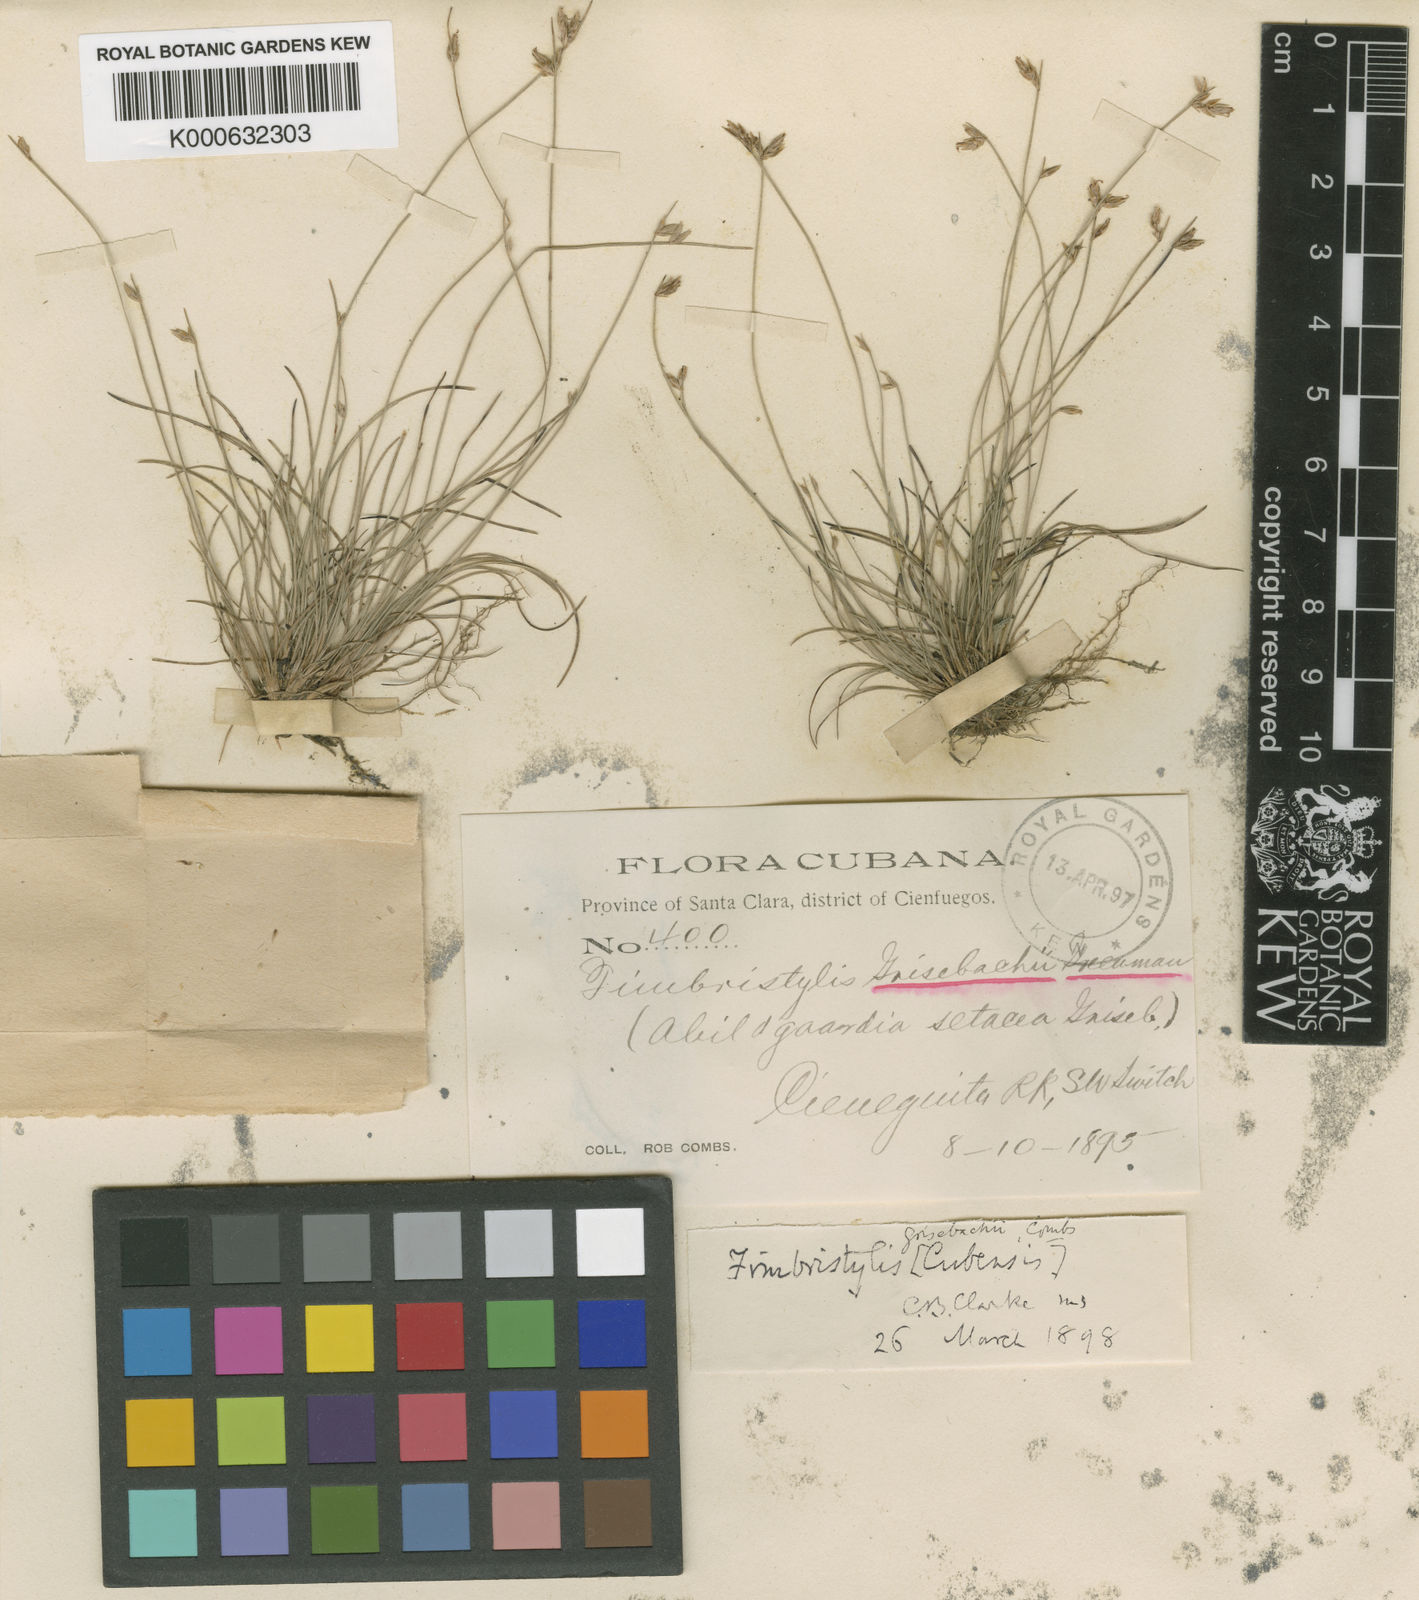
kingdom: Plantae
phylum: Tracheophyta
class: Liliopsida
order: Poales
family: Cyperaceae
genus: Bulbostylis
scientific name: Bulbostylis setacea
